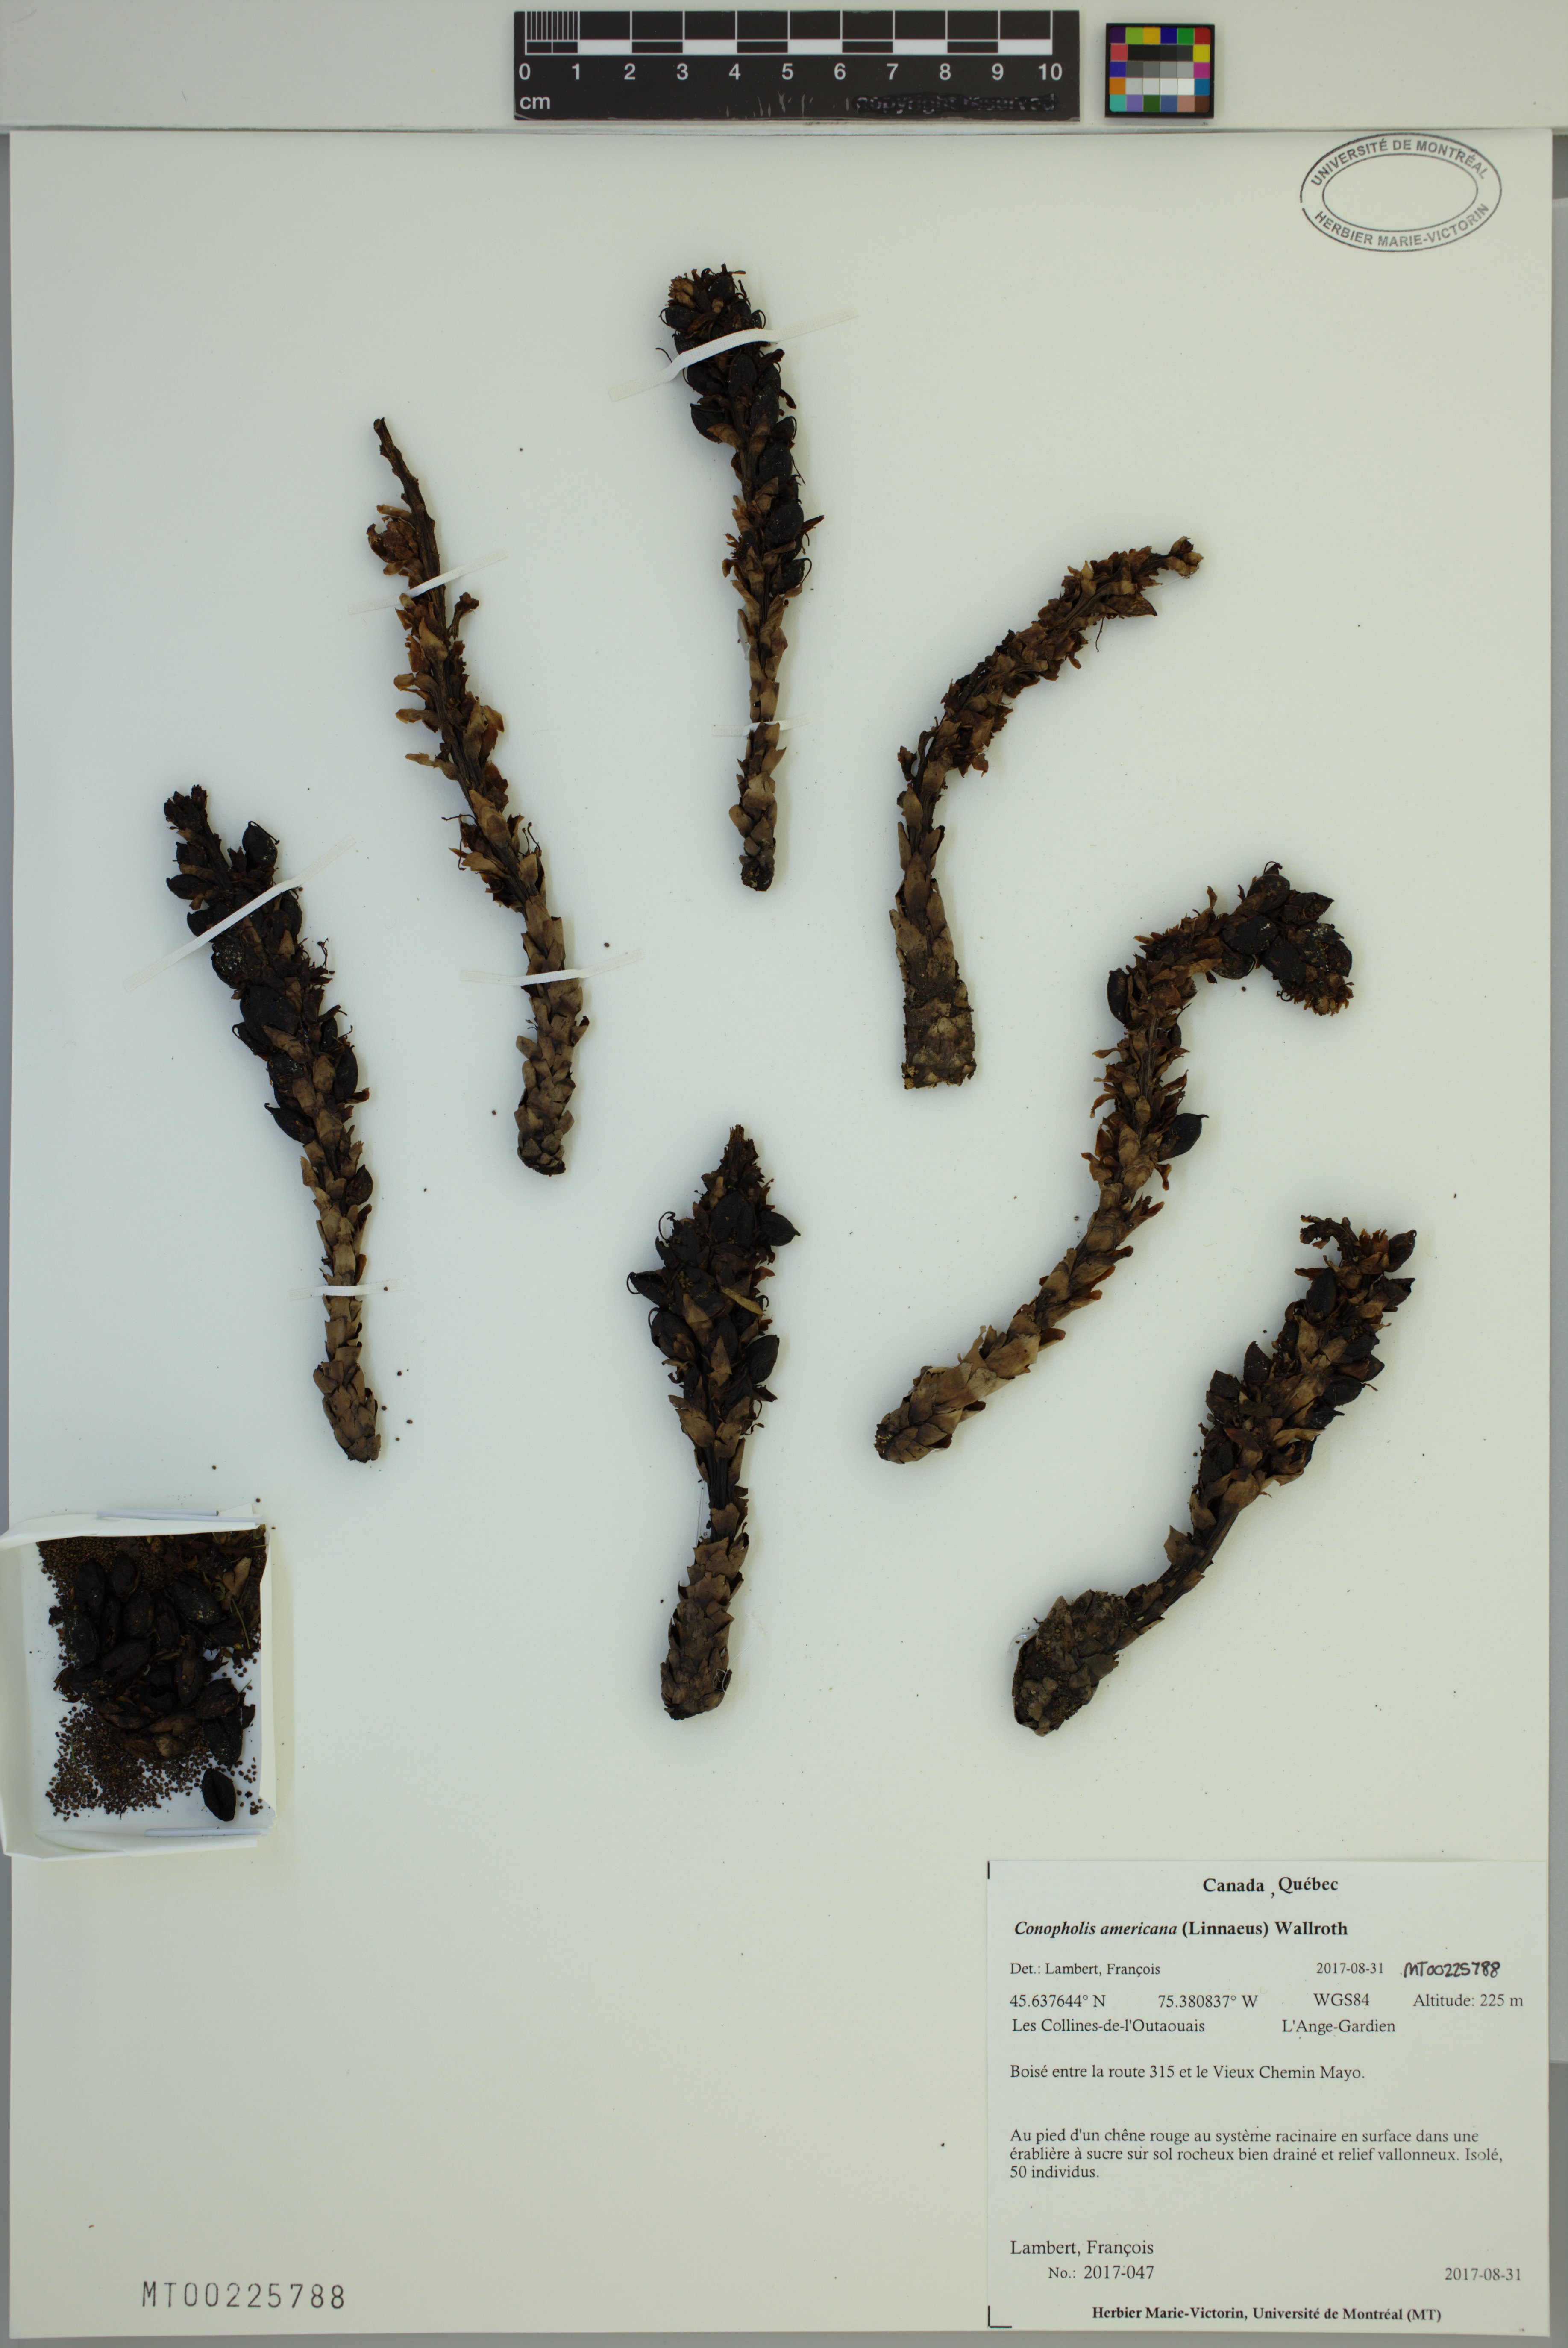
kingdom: Plantae
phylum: Tracheophyta
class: Magnoliopsida
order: Lamiales
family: Orobanchaceae
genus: Conopholis
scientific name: Conopholis americana
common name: American cancer-root
